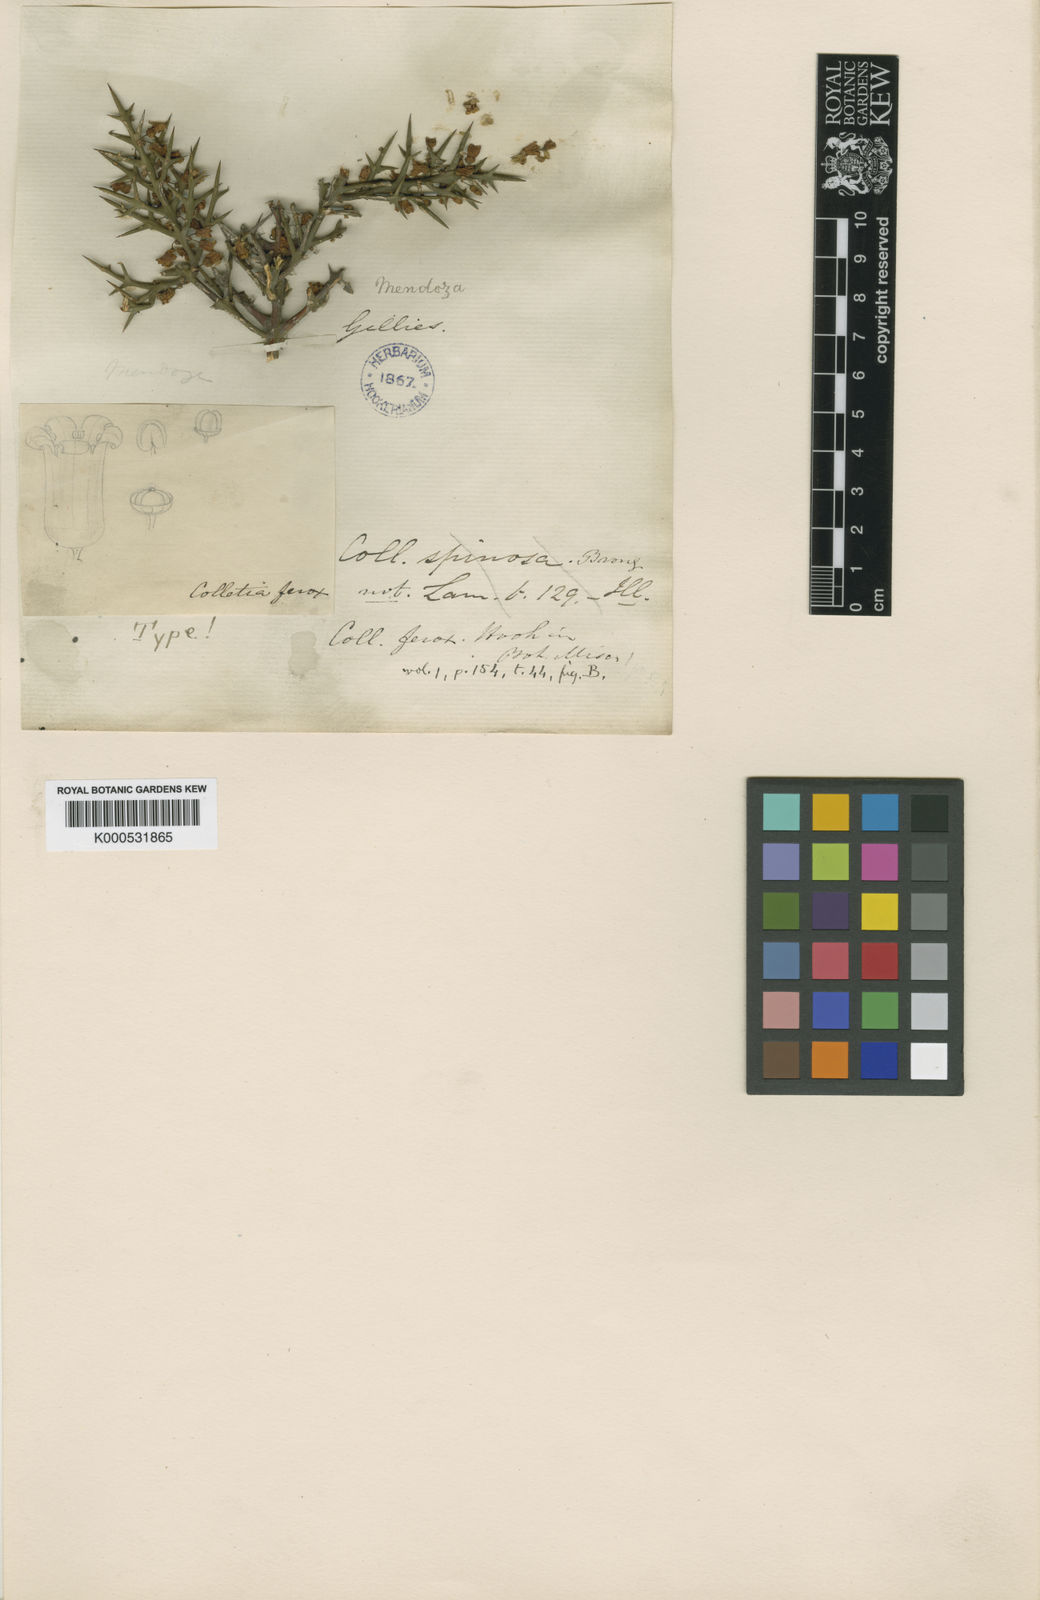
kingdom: Plantae
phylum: Tracheophyta
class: Magnoliopsida
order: Rosales
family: Rhamnaceae
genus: Colletia
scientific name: Colletia spinosissima
